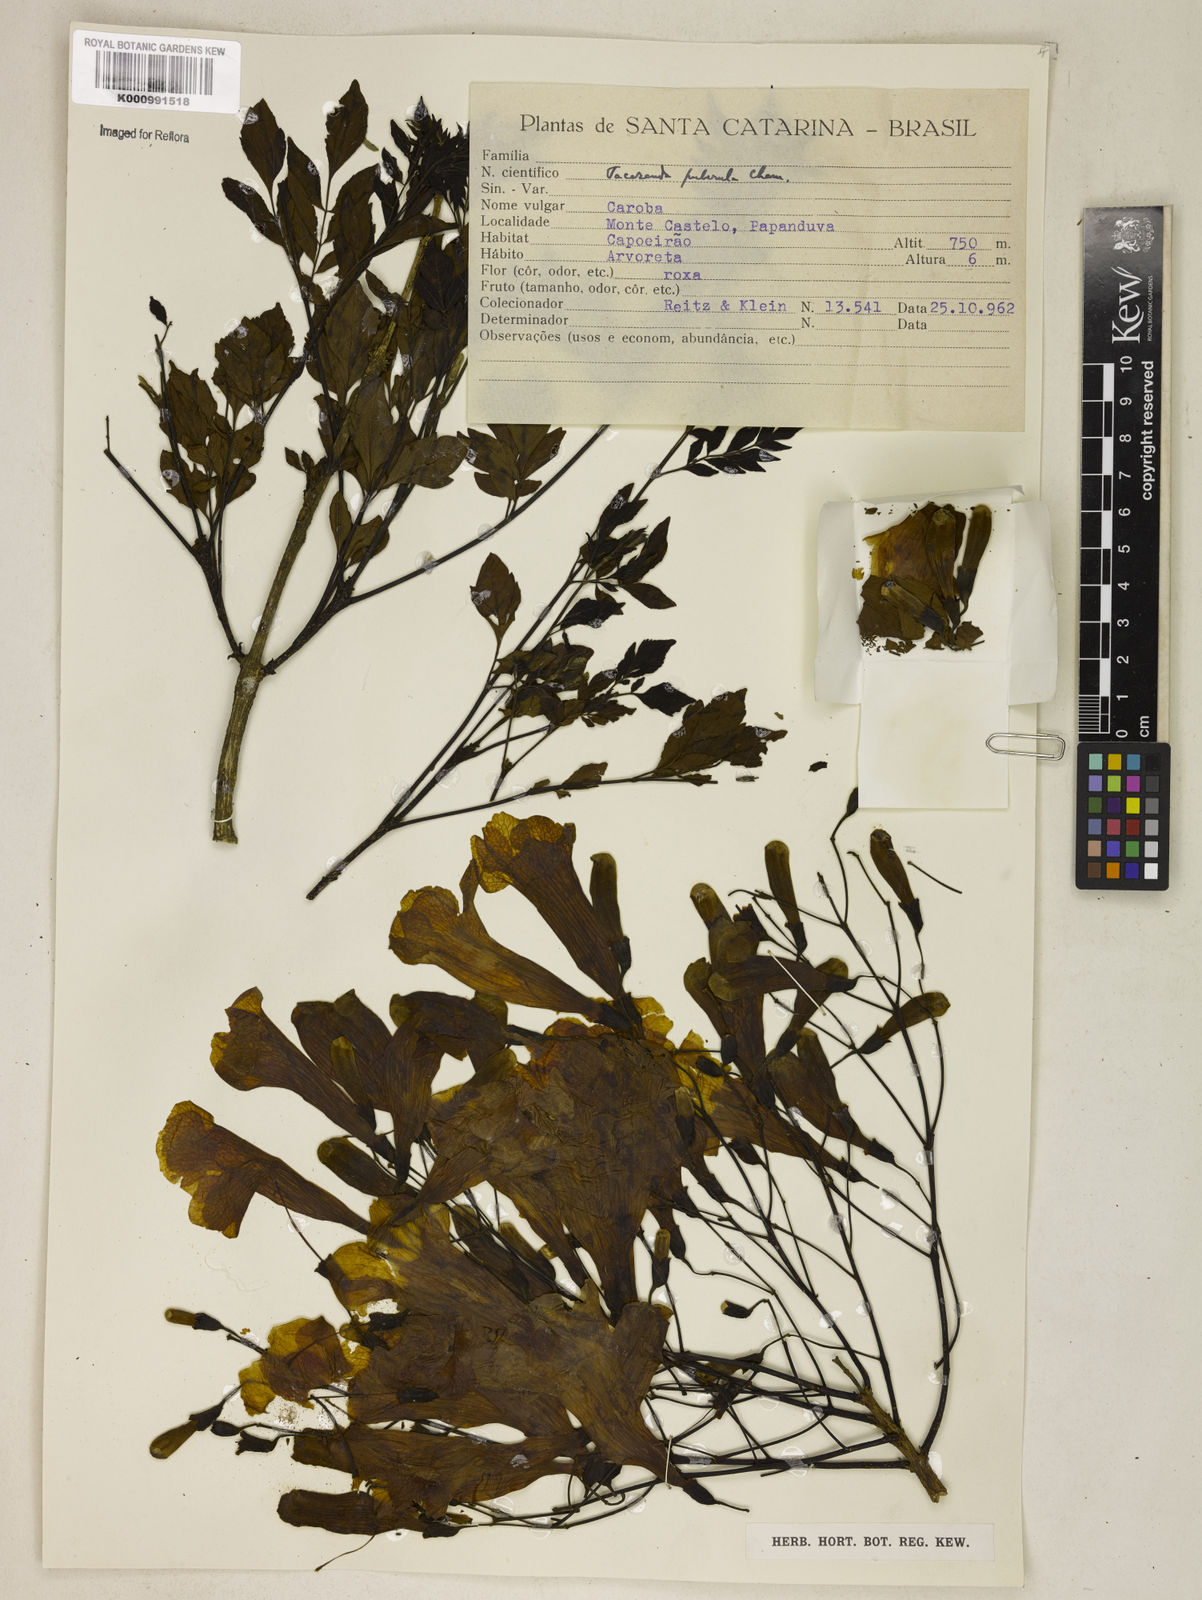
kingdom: Plantae
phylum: Tracheophyta
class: Magnoliopsida
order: Lamiales
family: Bignoniaceae
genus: Jacaranda
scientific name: Jacaranda puberula
